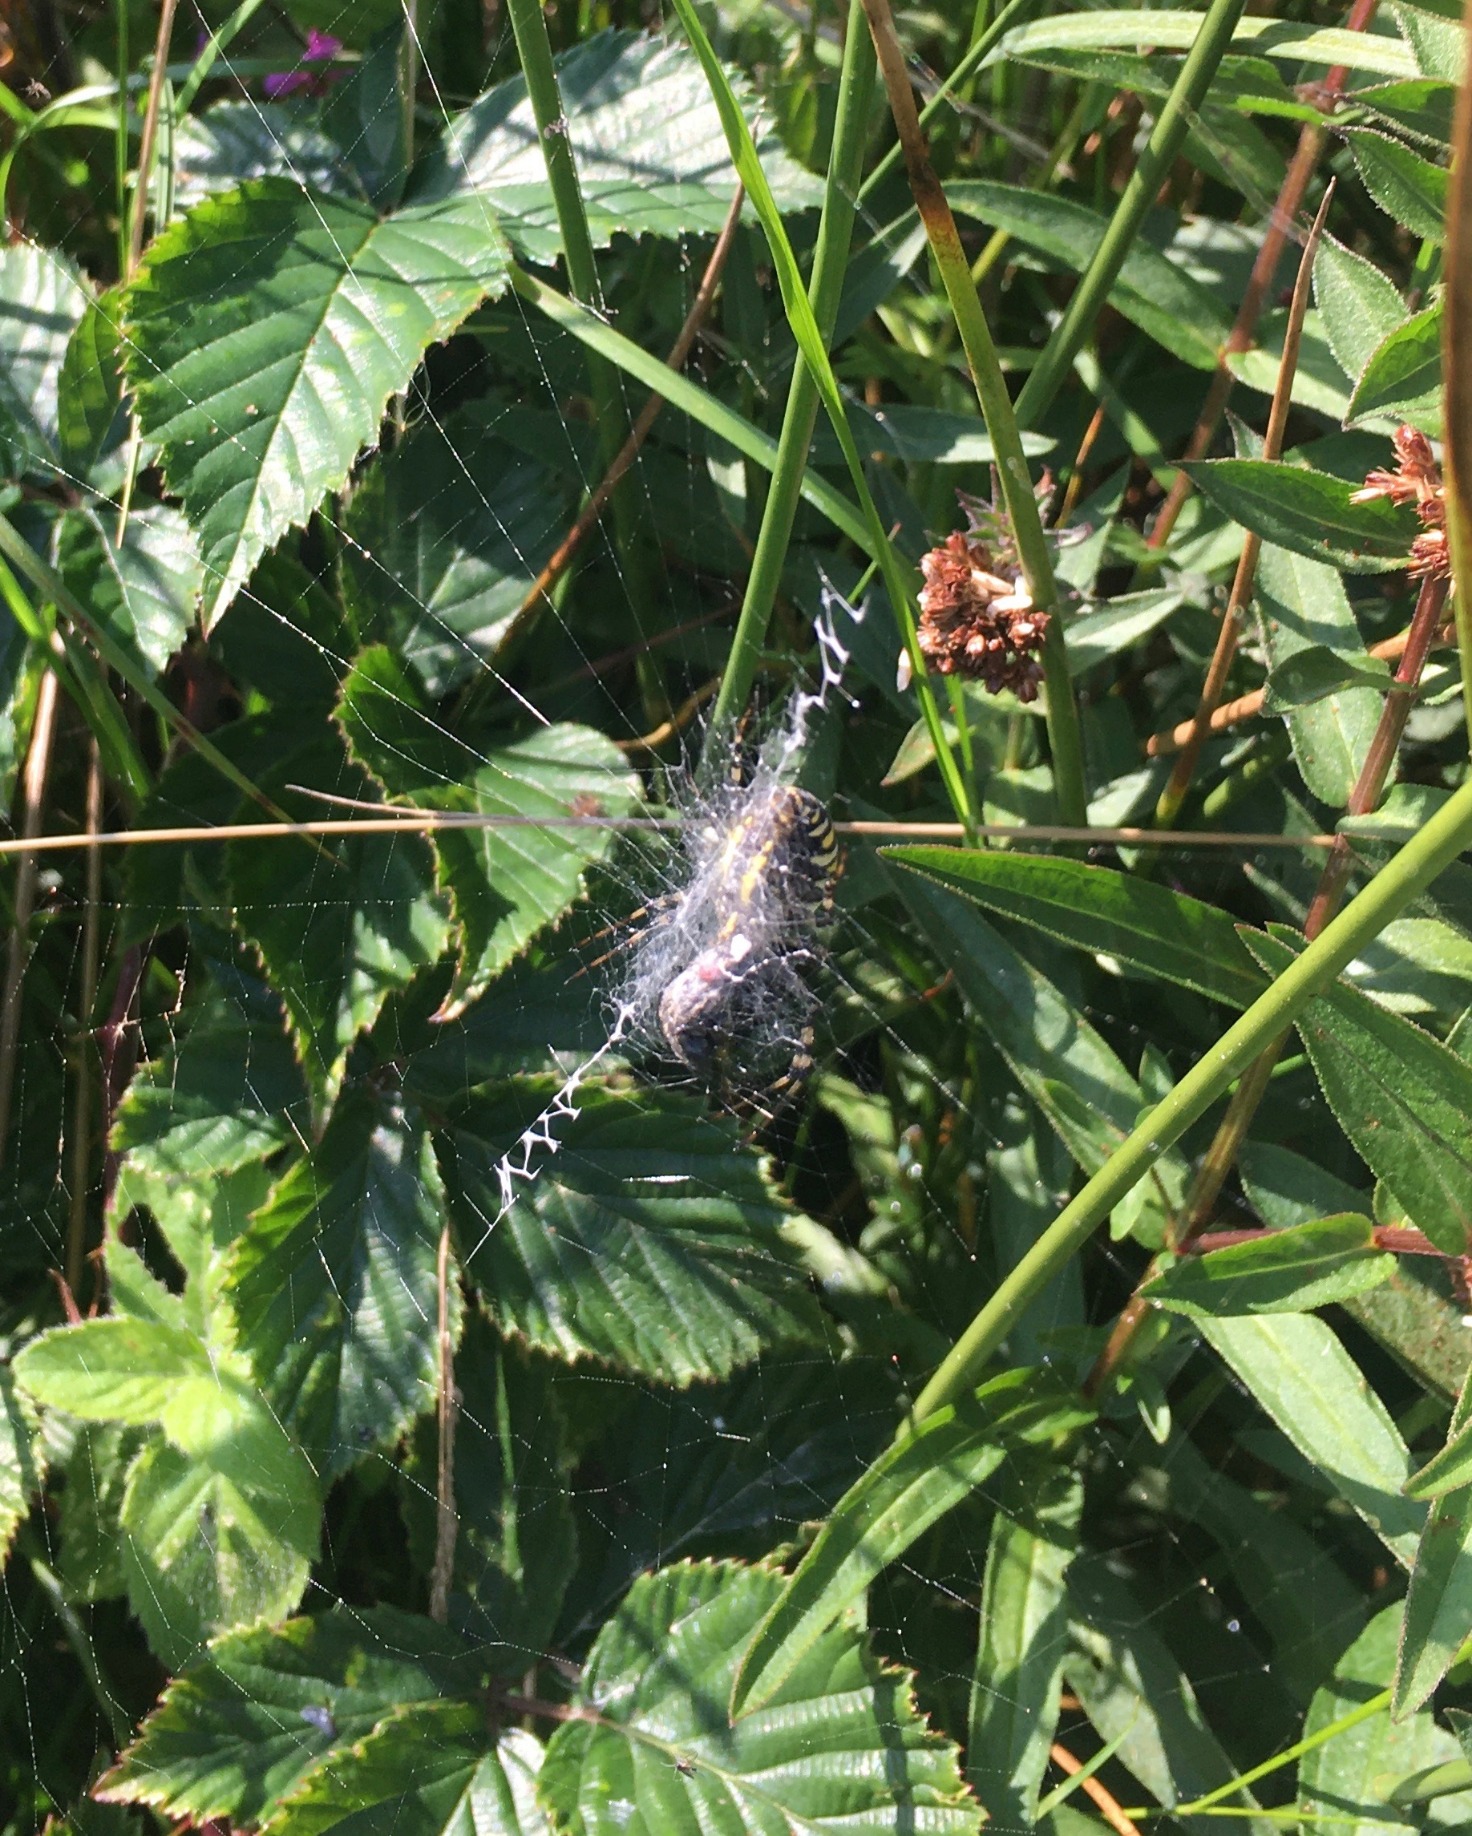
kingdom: Animalia
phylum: Arthropoda
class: Arachnida
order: Araneae
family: Araneidae
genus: Argiope
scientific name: Argiope bruennichi
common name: Hvepseedderkop
